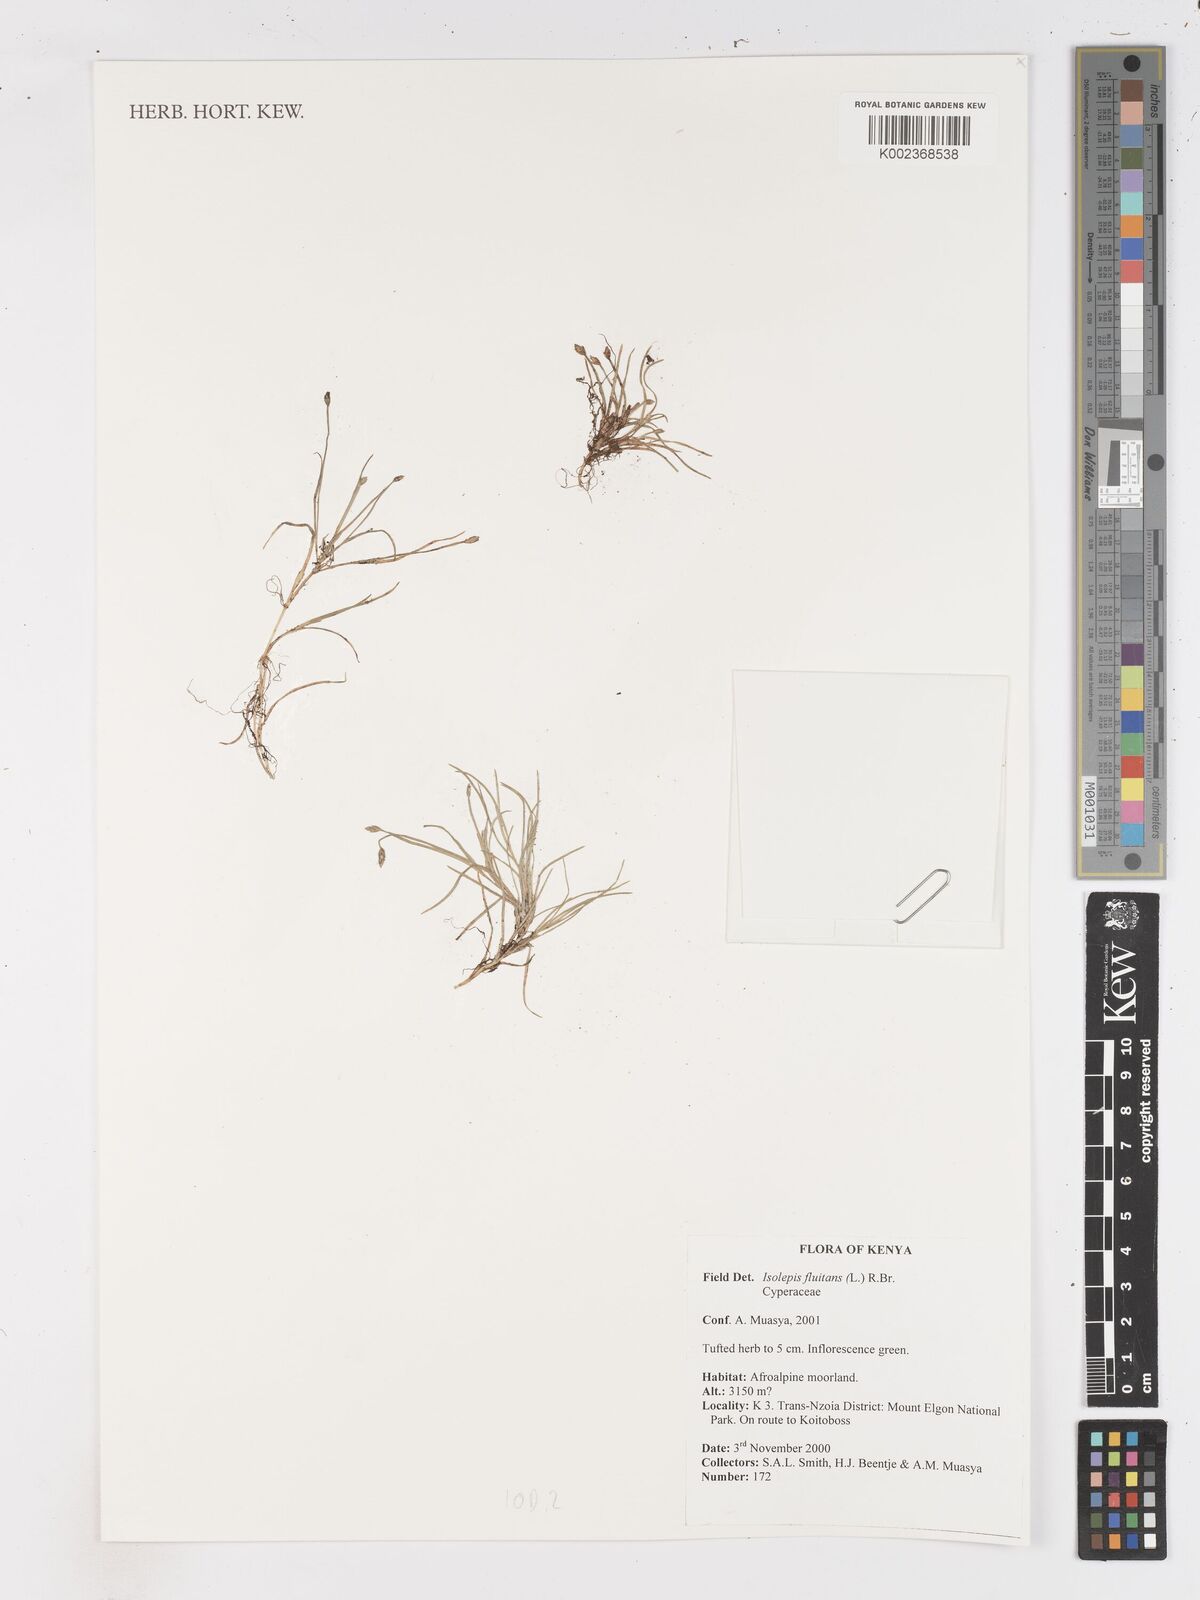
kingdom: Plantae
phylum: Tracheophyta
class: Liliopsida
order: Poales
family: Cyperaceae
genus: Isolepis
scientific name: Isolepis fluitans
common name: Floating club-rush
